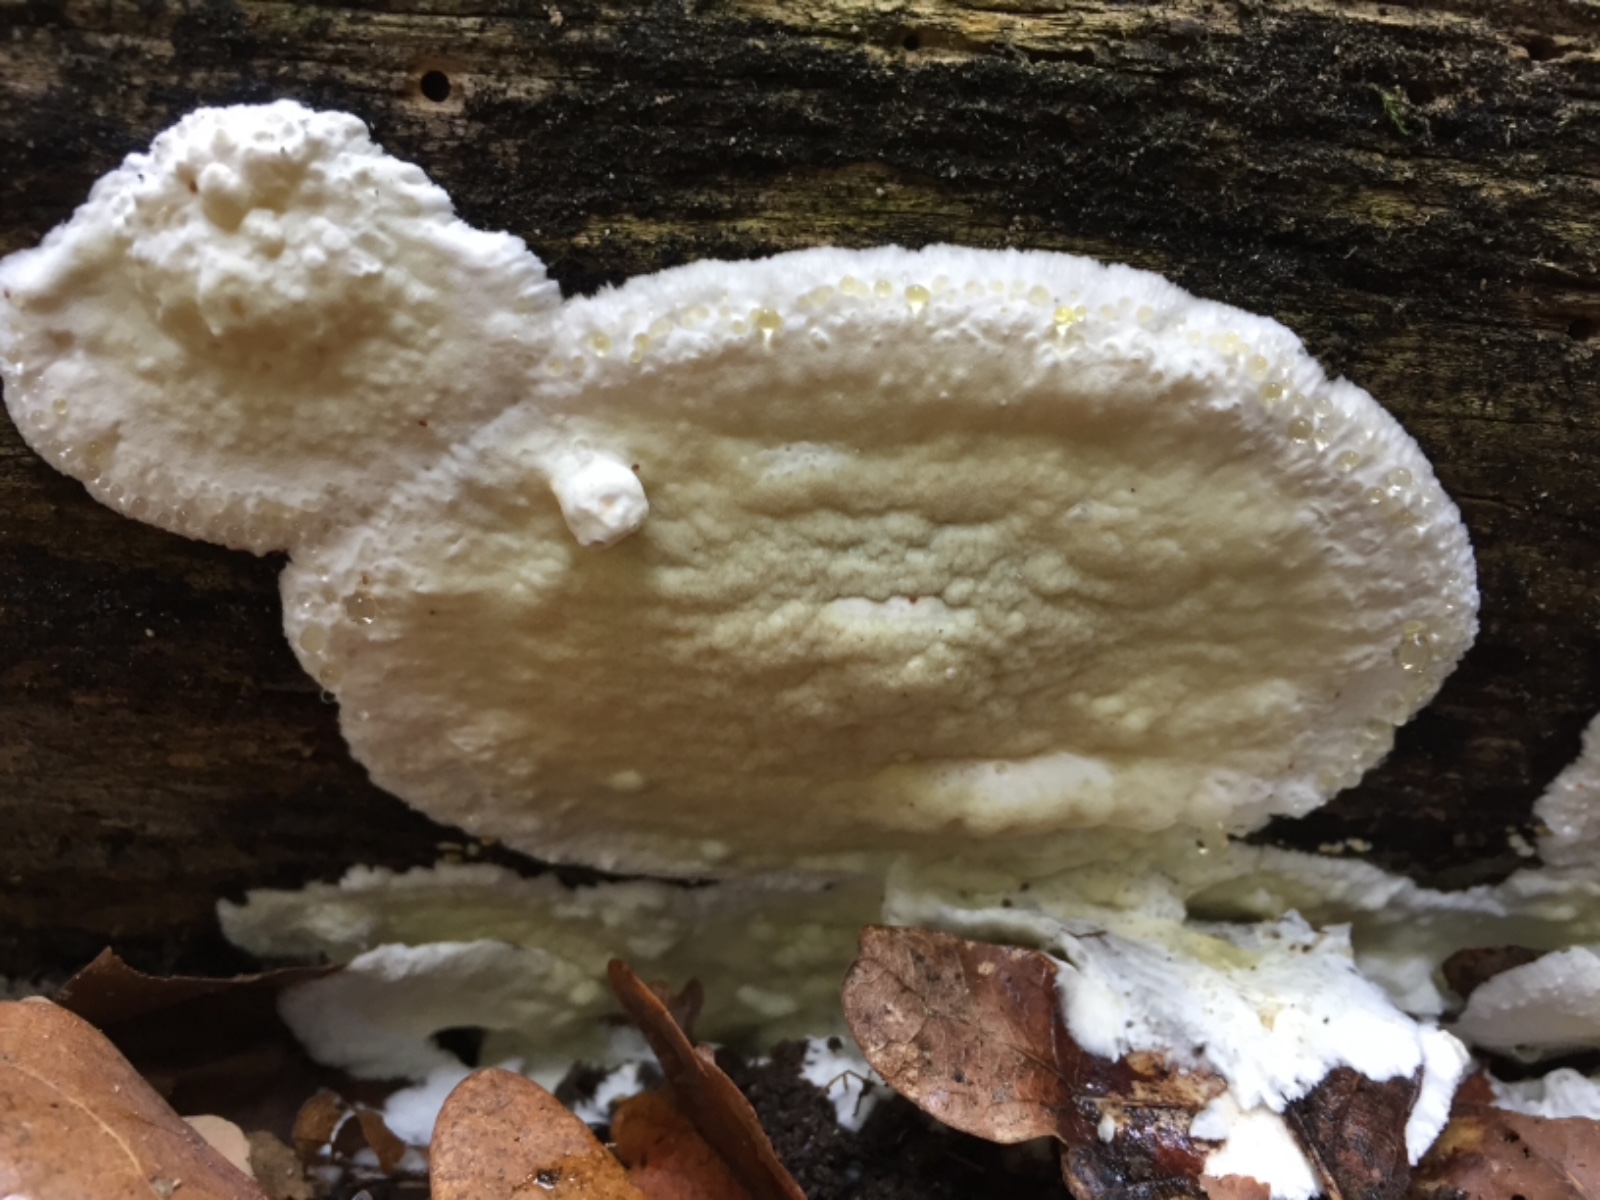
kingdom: Fungi
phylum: Basidiomycota
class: Agaricomycetes
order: Polyporales
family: Irpicaceae
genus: Gloeoporus
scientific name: Gloeoporus pannocinctus
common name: grøngul foldporesvamp
